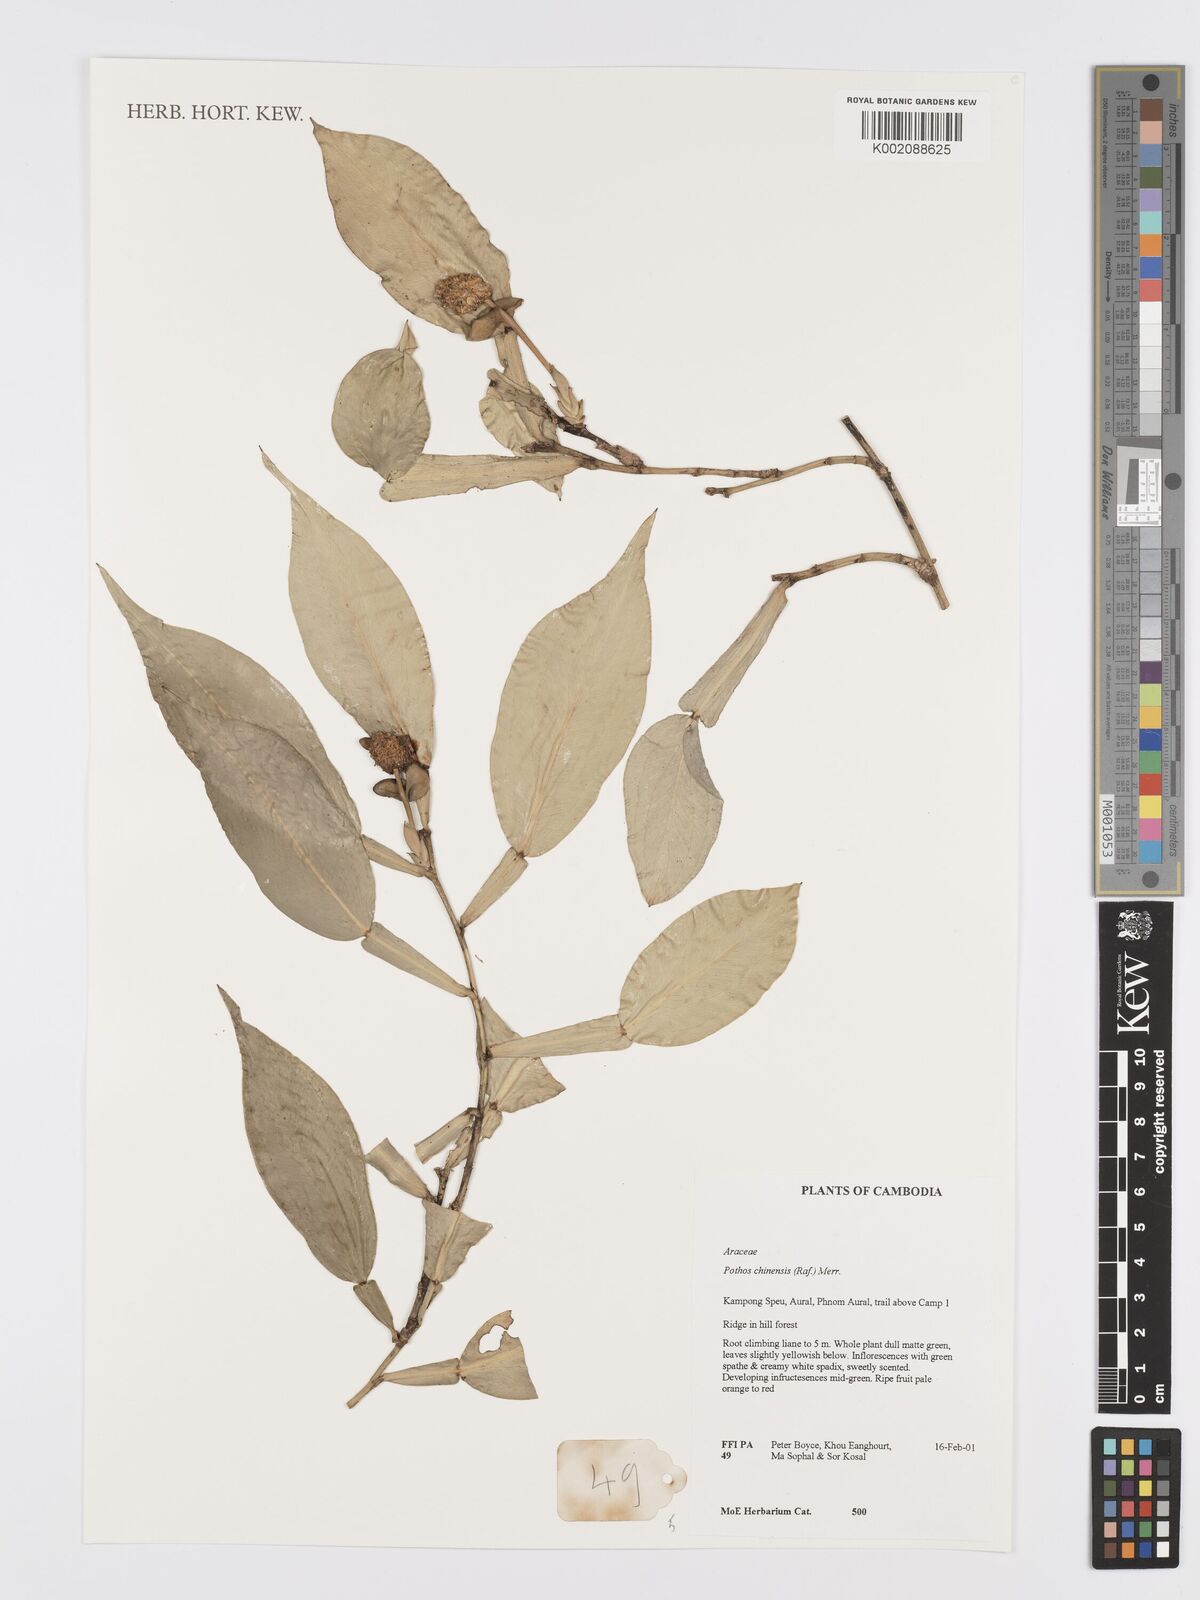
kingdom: Plantae
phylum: Tracheophyta
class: Liliopsida
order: Alismatales
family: Araceae
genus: Pothos
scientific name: Pothos chinensis
